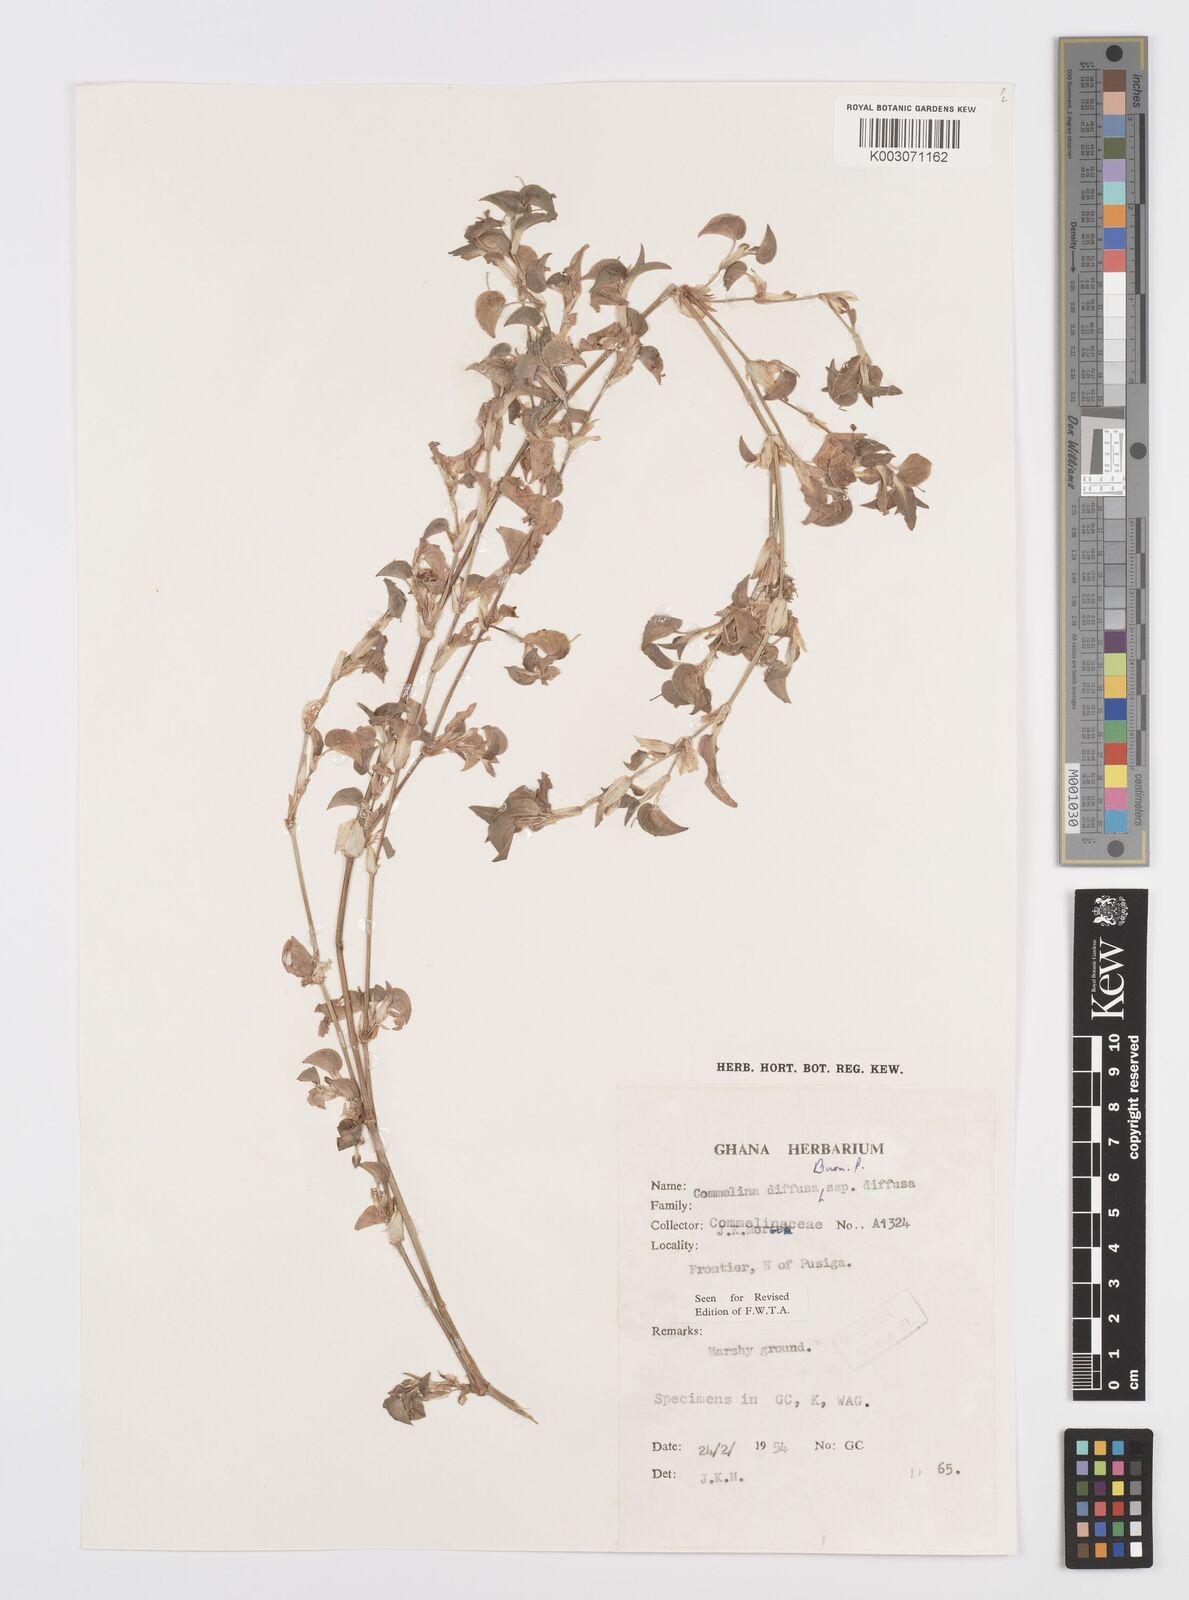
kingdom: Plantae
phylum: Tracheophyta
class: Liliopsida
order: Commelinales
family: Commelinaceae
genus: Commelina
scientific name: Commelina diffusa
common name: Climbing dayflower
